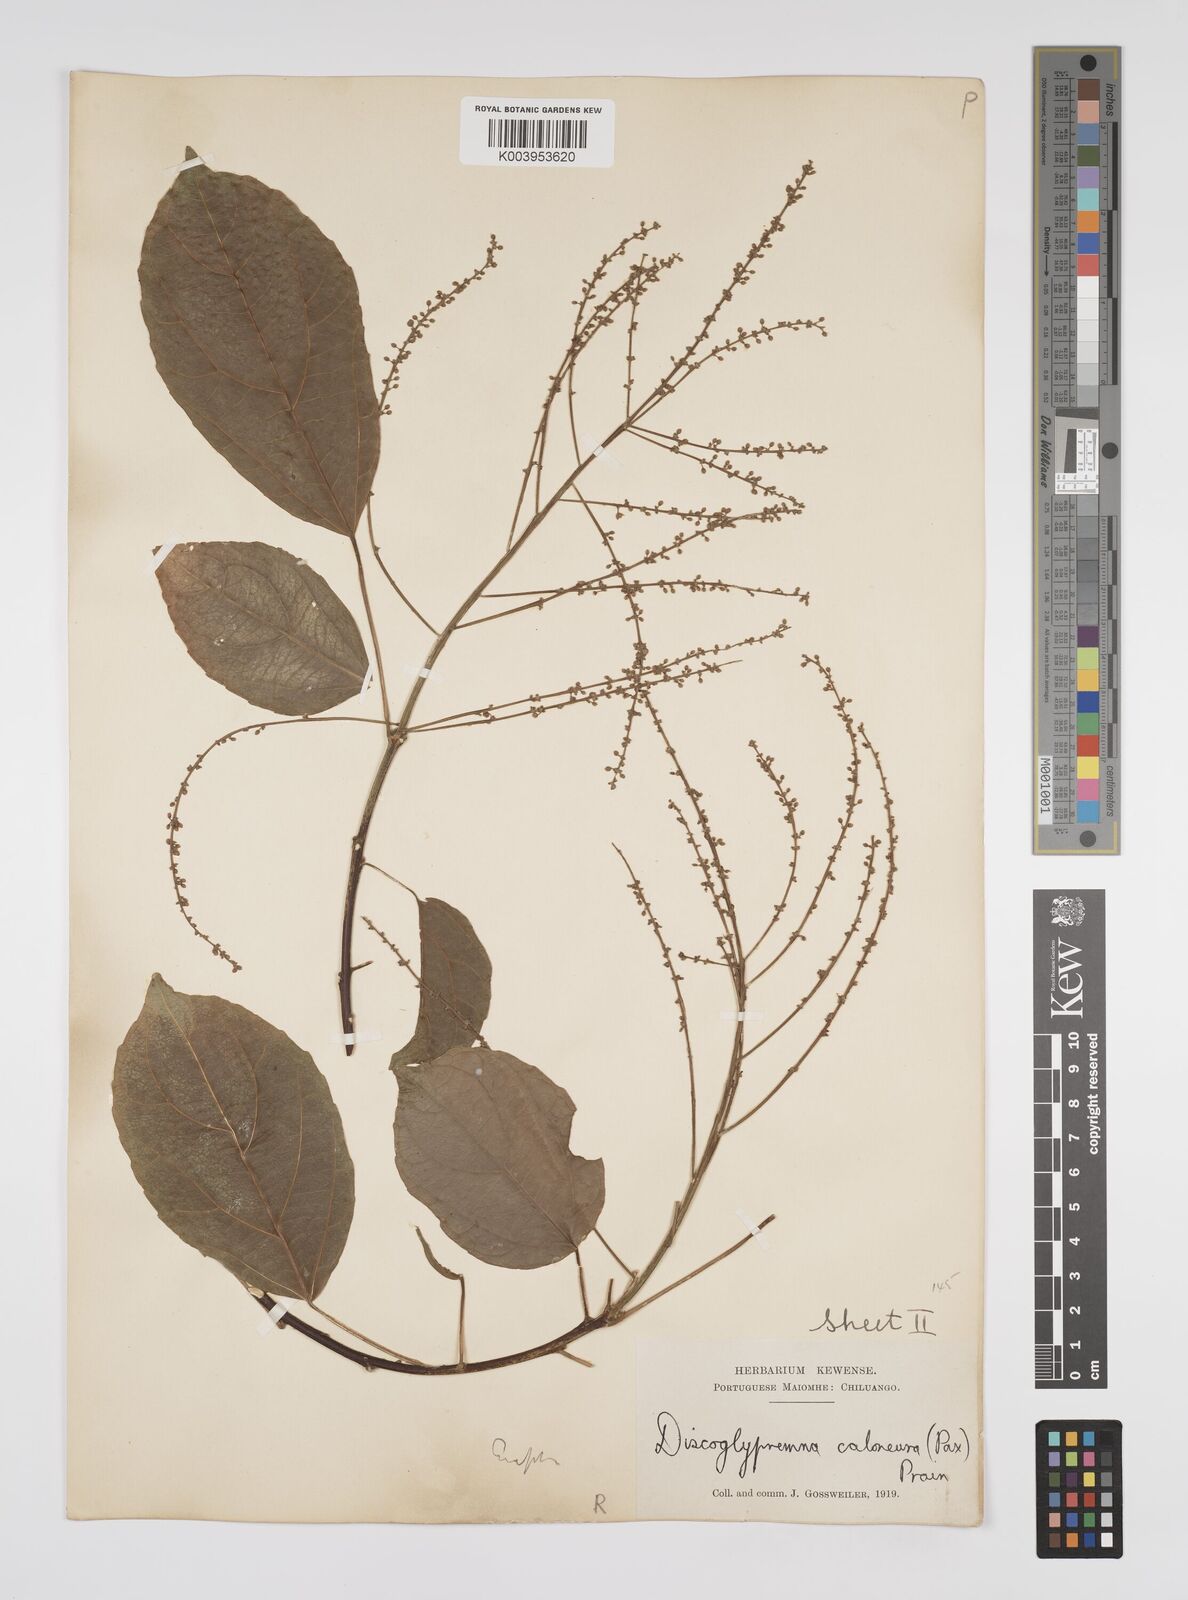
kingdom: Plantae
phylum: Tracheophyta
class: Magnoliopsida
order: Malpighiales
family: Euphorbiaceae
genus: Discoglypremna
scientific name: Discoglypremna caloneura
